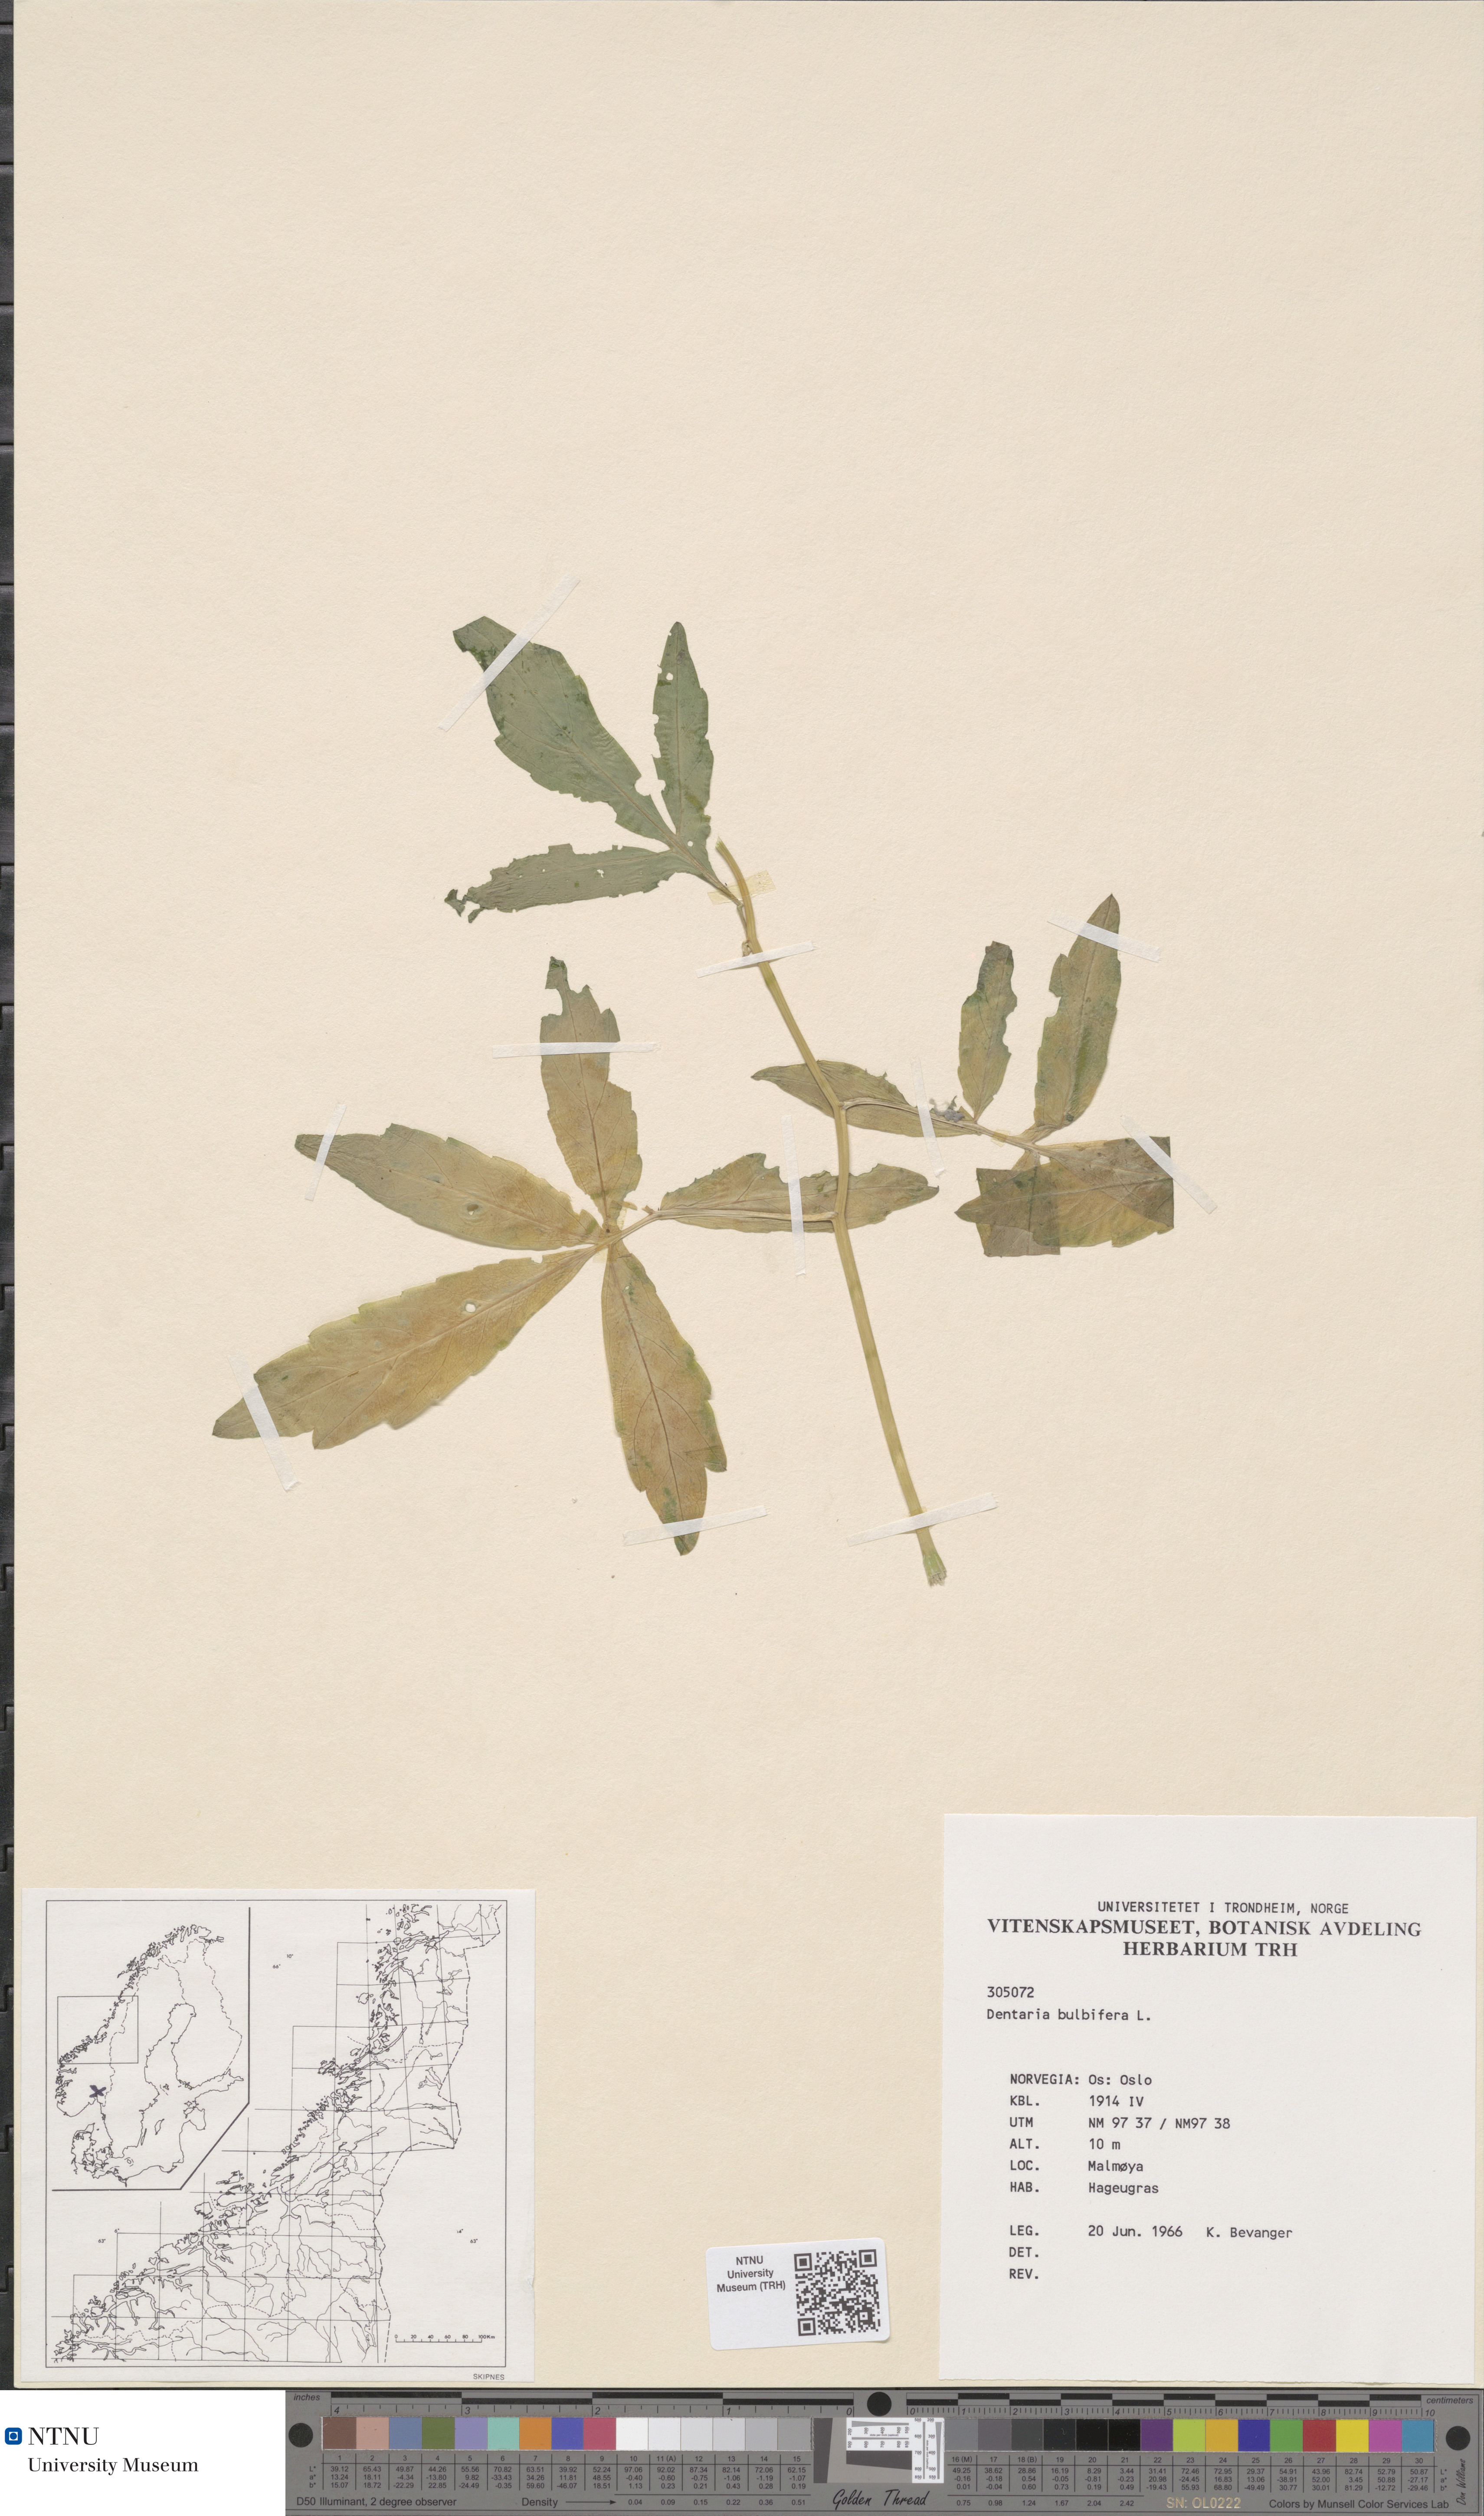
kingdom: Plantae
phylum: Tracheophyta
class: Magnoliopsida
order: Brassicales
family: Brassicaceae
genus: Cardamine
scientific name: Cardamine bulbifera
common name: Coralroot bittercress
